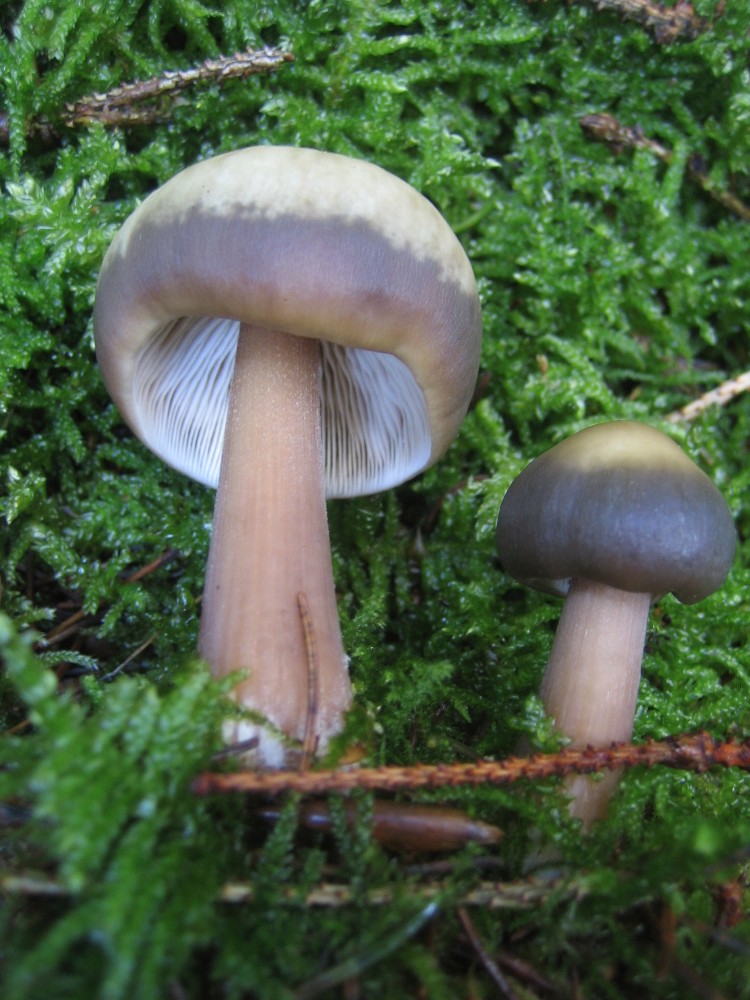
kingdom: Fungi
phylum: Basidiomycota
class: Agaricomycetes
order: Agaricales
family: Omphalotaceae
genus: Rhodocollybia
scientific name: Rhodocollybia asema
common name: horngrå fladhat
